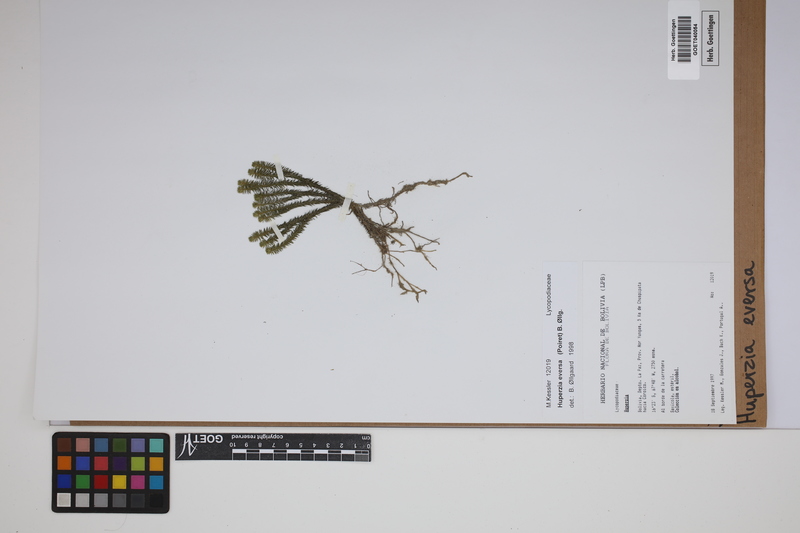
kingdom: Plantae
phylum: Tracheophyta
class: Lycopodiopsida
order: Lycopodiales
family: Lycopodiaceae
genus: Phlegmariurus
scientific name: Phlegmariurus eversus
